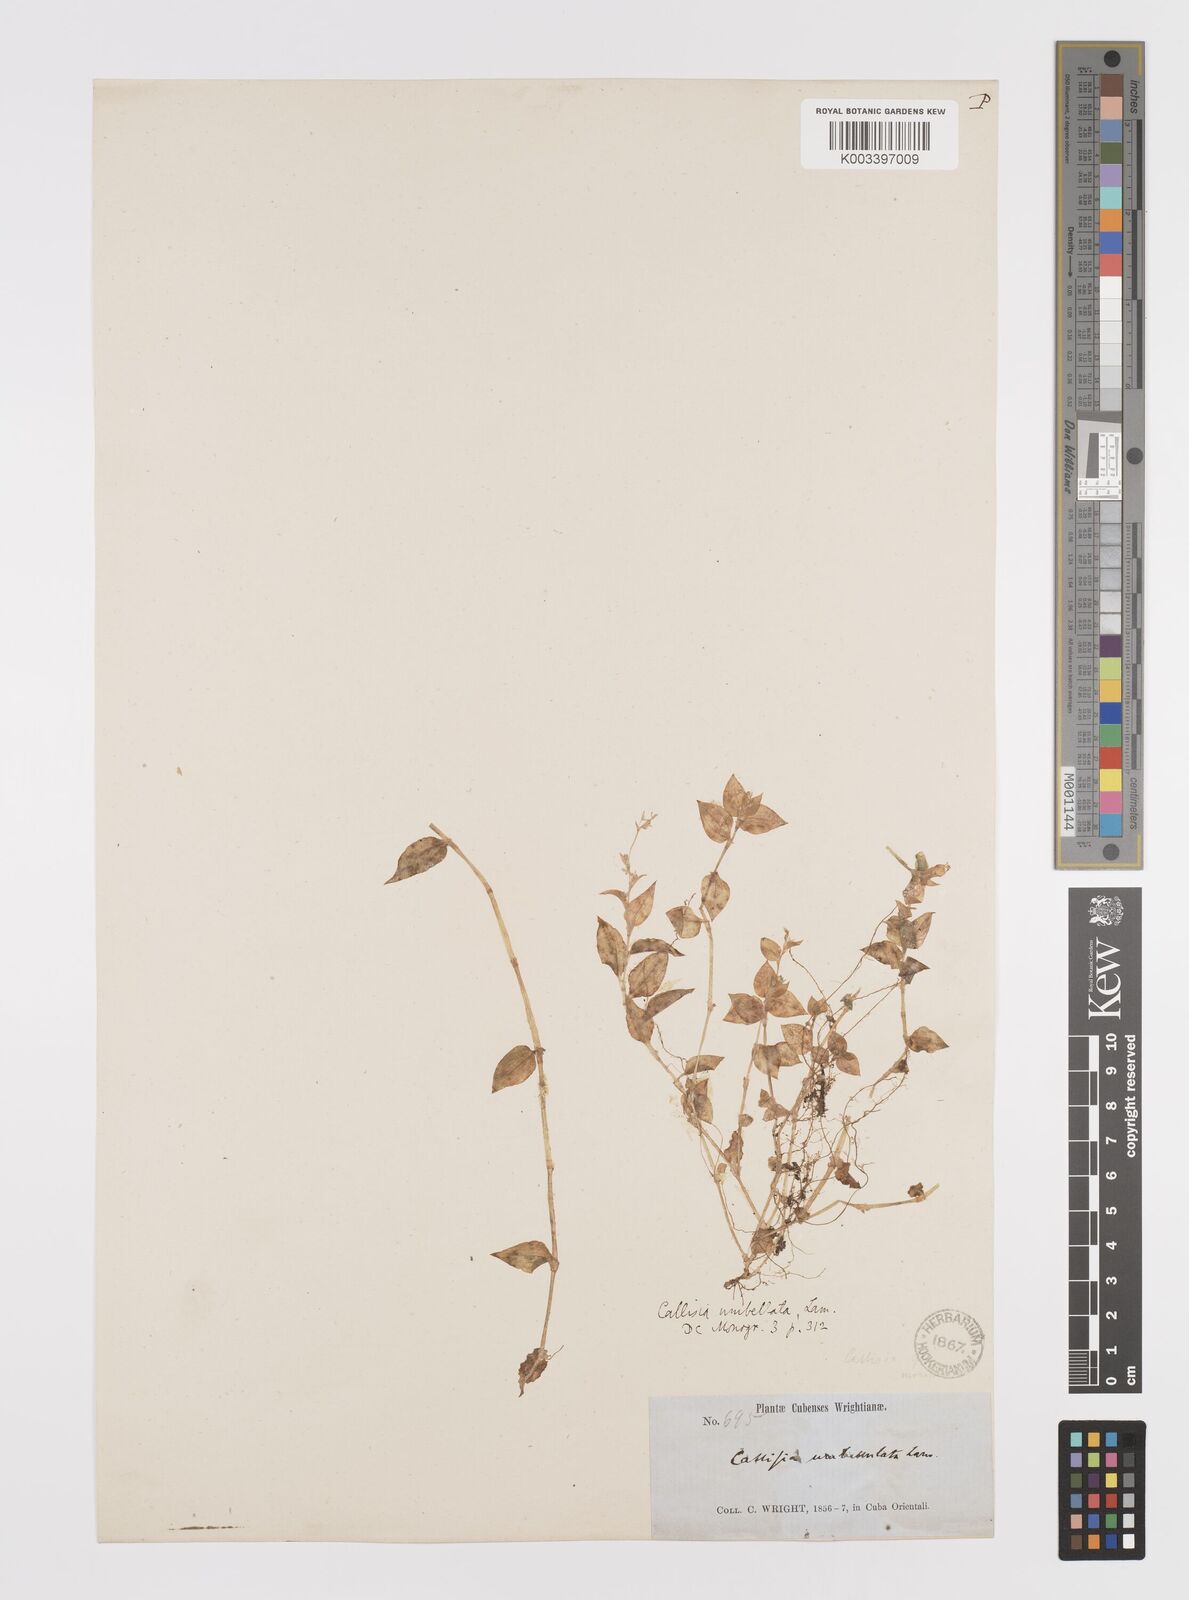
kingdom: Plantae
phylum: Tracheophyta
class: Liliopsida
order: Commelinales
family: Commelinaceae
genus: Callisia
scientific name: Callisia monandra
